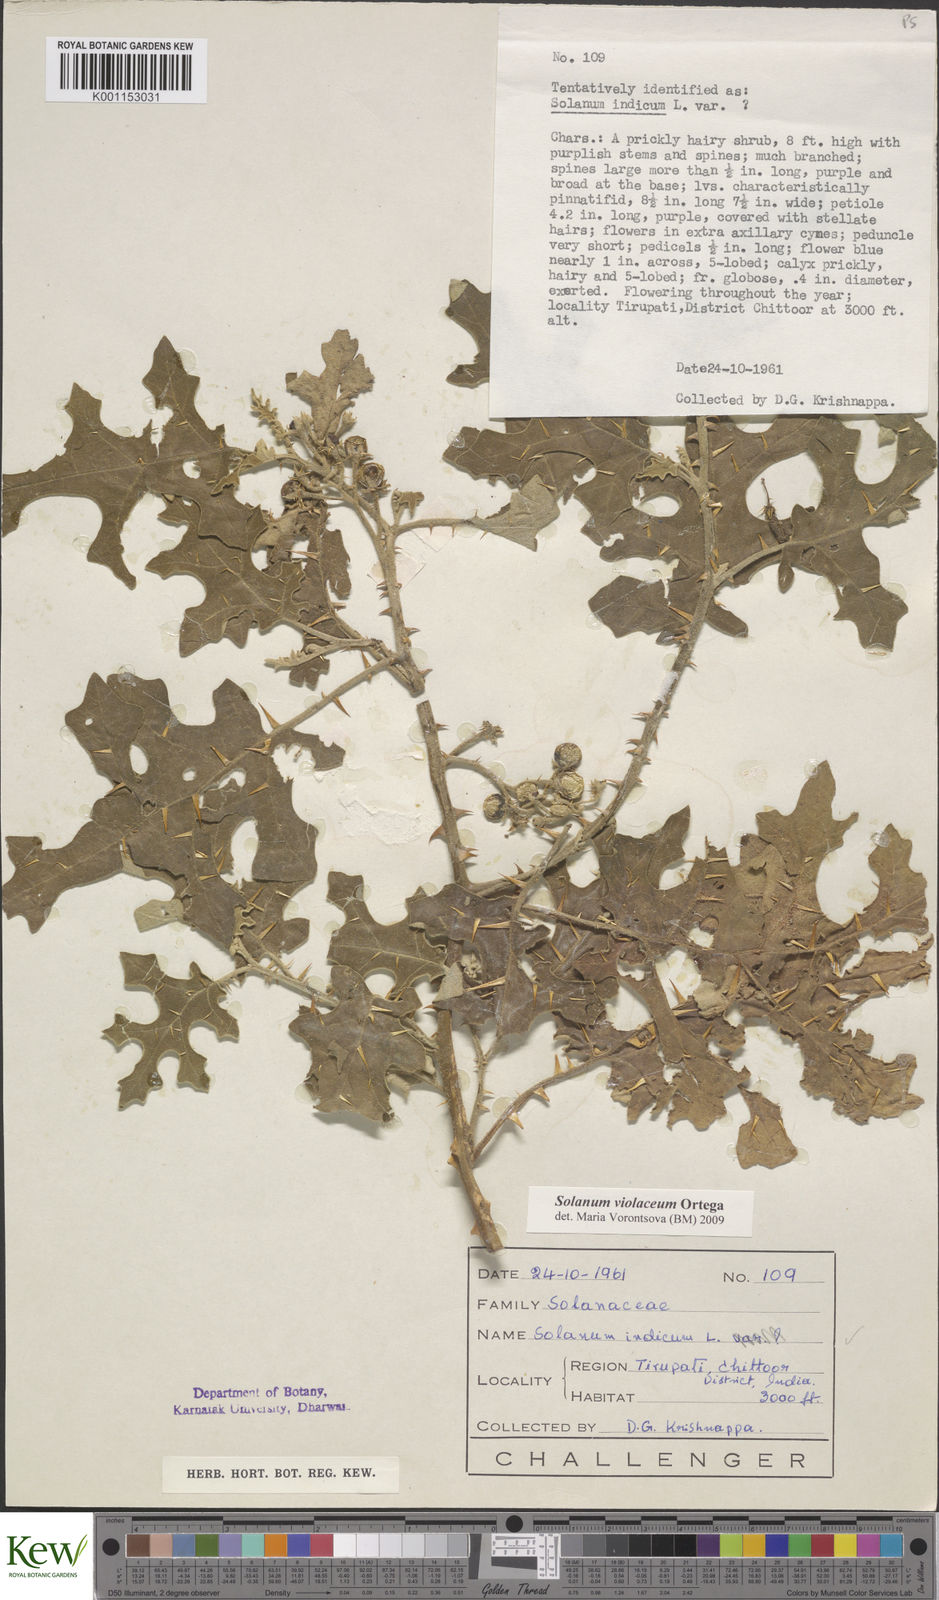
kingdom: Plantae
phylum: Tracheophyta
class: Magnoliopsida
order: Solanales
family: Solanaceae
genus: Solanum
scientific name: Solanum violaceum
